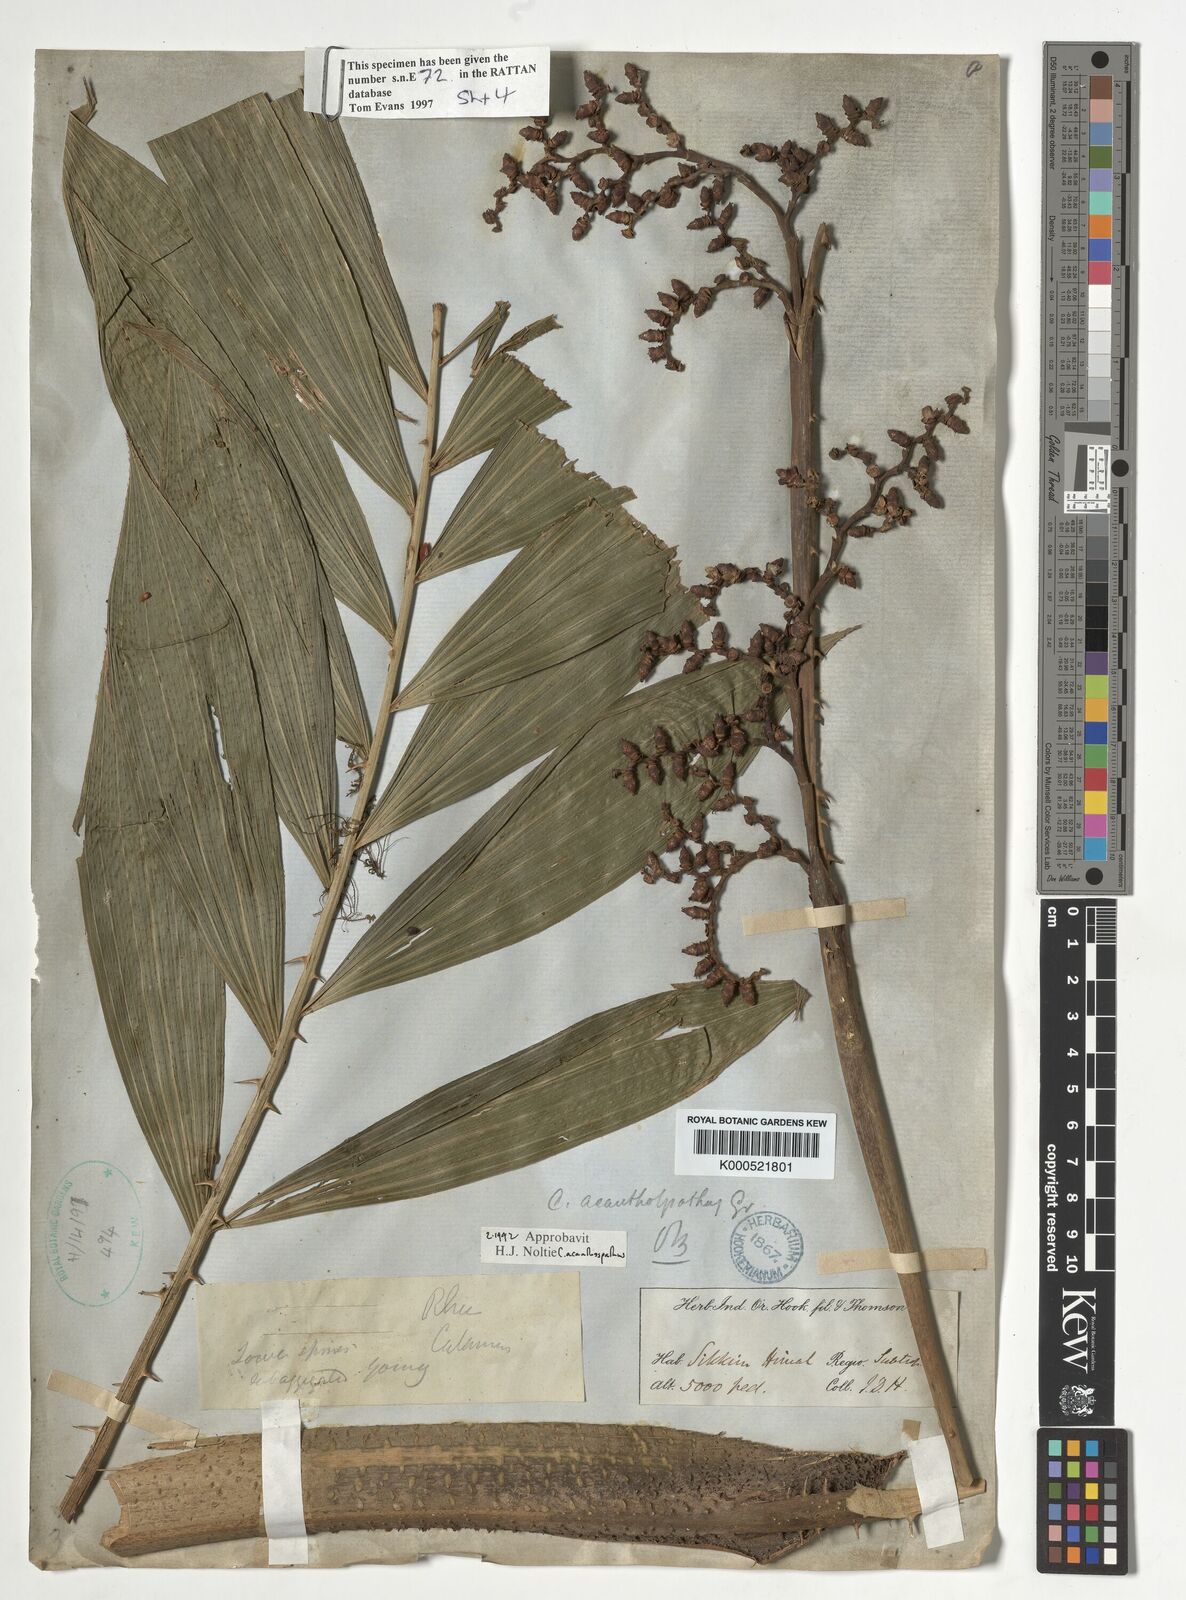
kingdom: Plantae
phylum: Tracheophyta
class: Liliopsida
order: Arecales
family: Arecaceae
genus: Calamus
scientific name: Calamus acanthospathus
